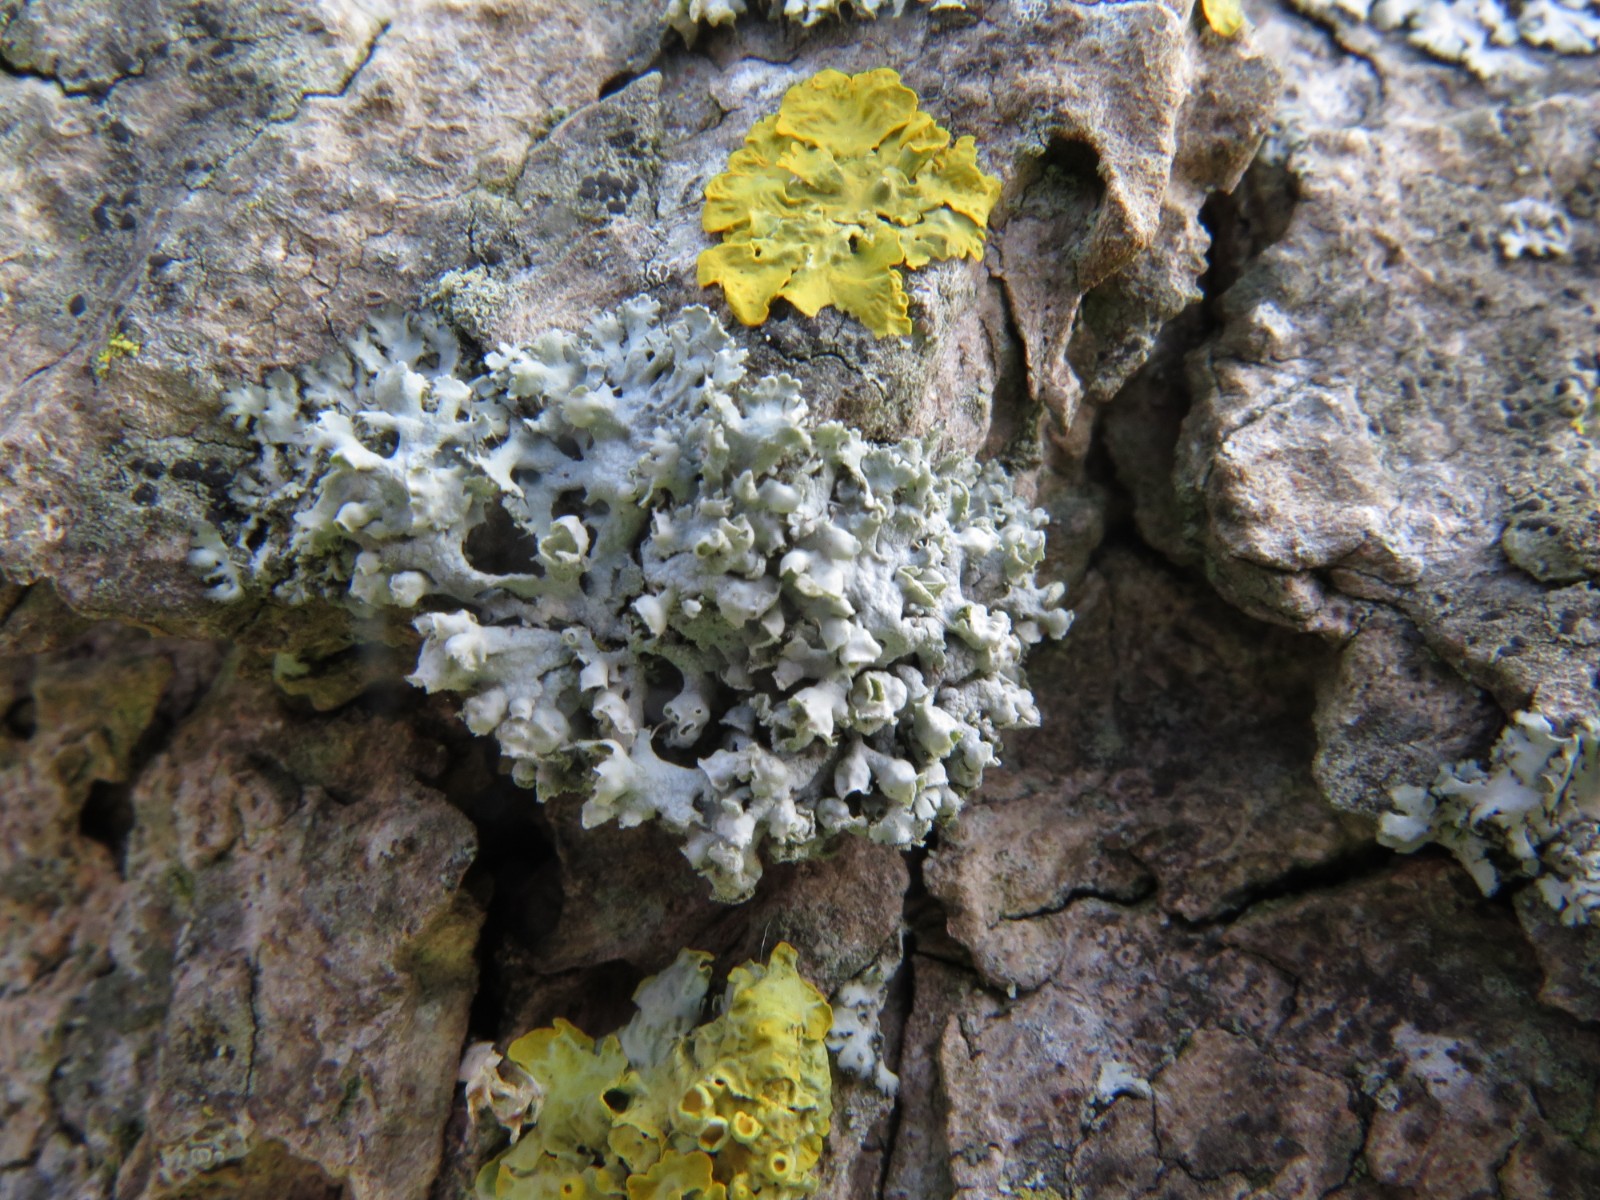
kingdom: Fungi
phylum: Ascomycota
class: Lecanoromycetes
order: Caliciales
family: Physciaceae
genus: Physcia
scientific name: Physcia adscendens
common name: hætte-rosetlav
